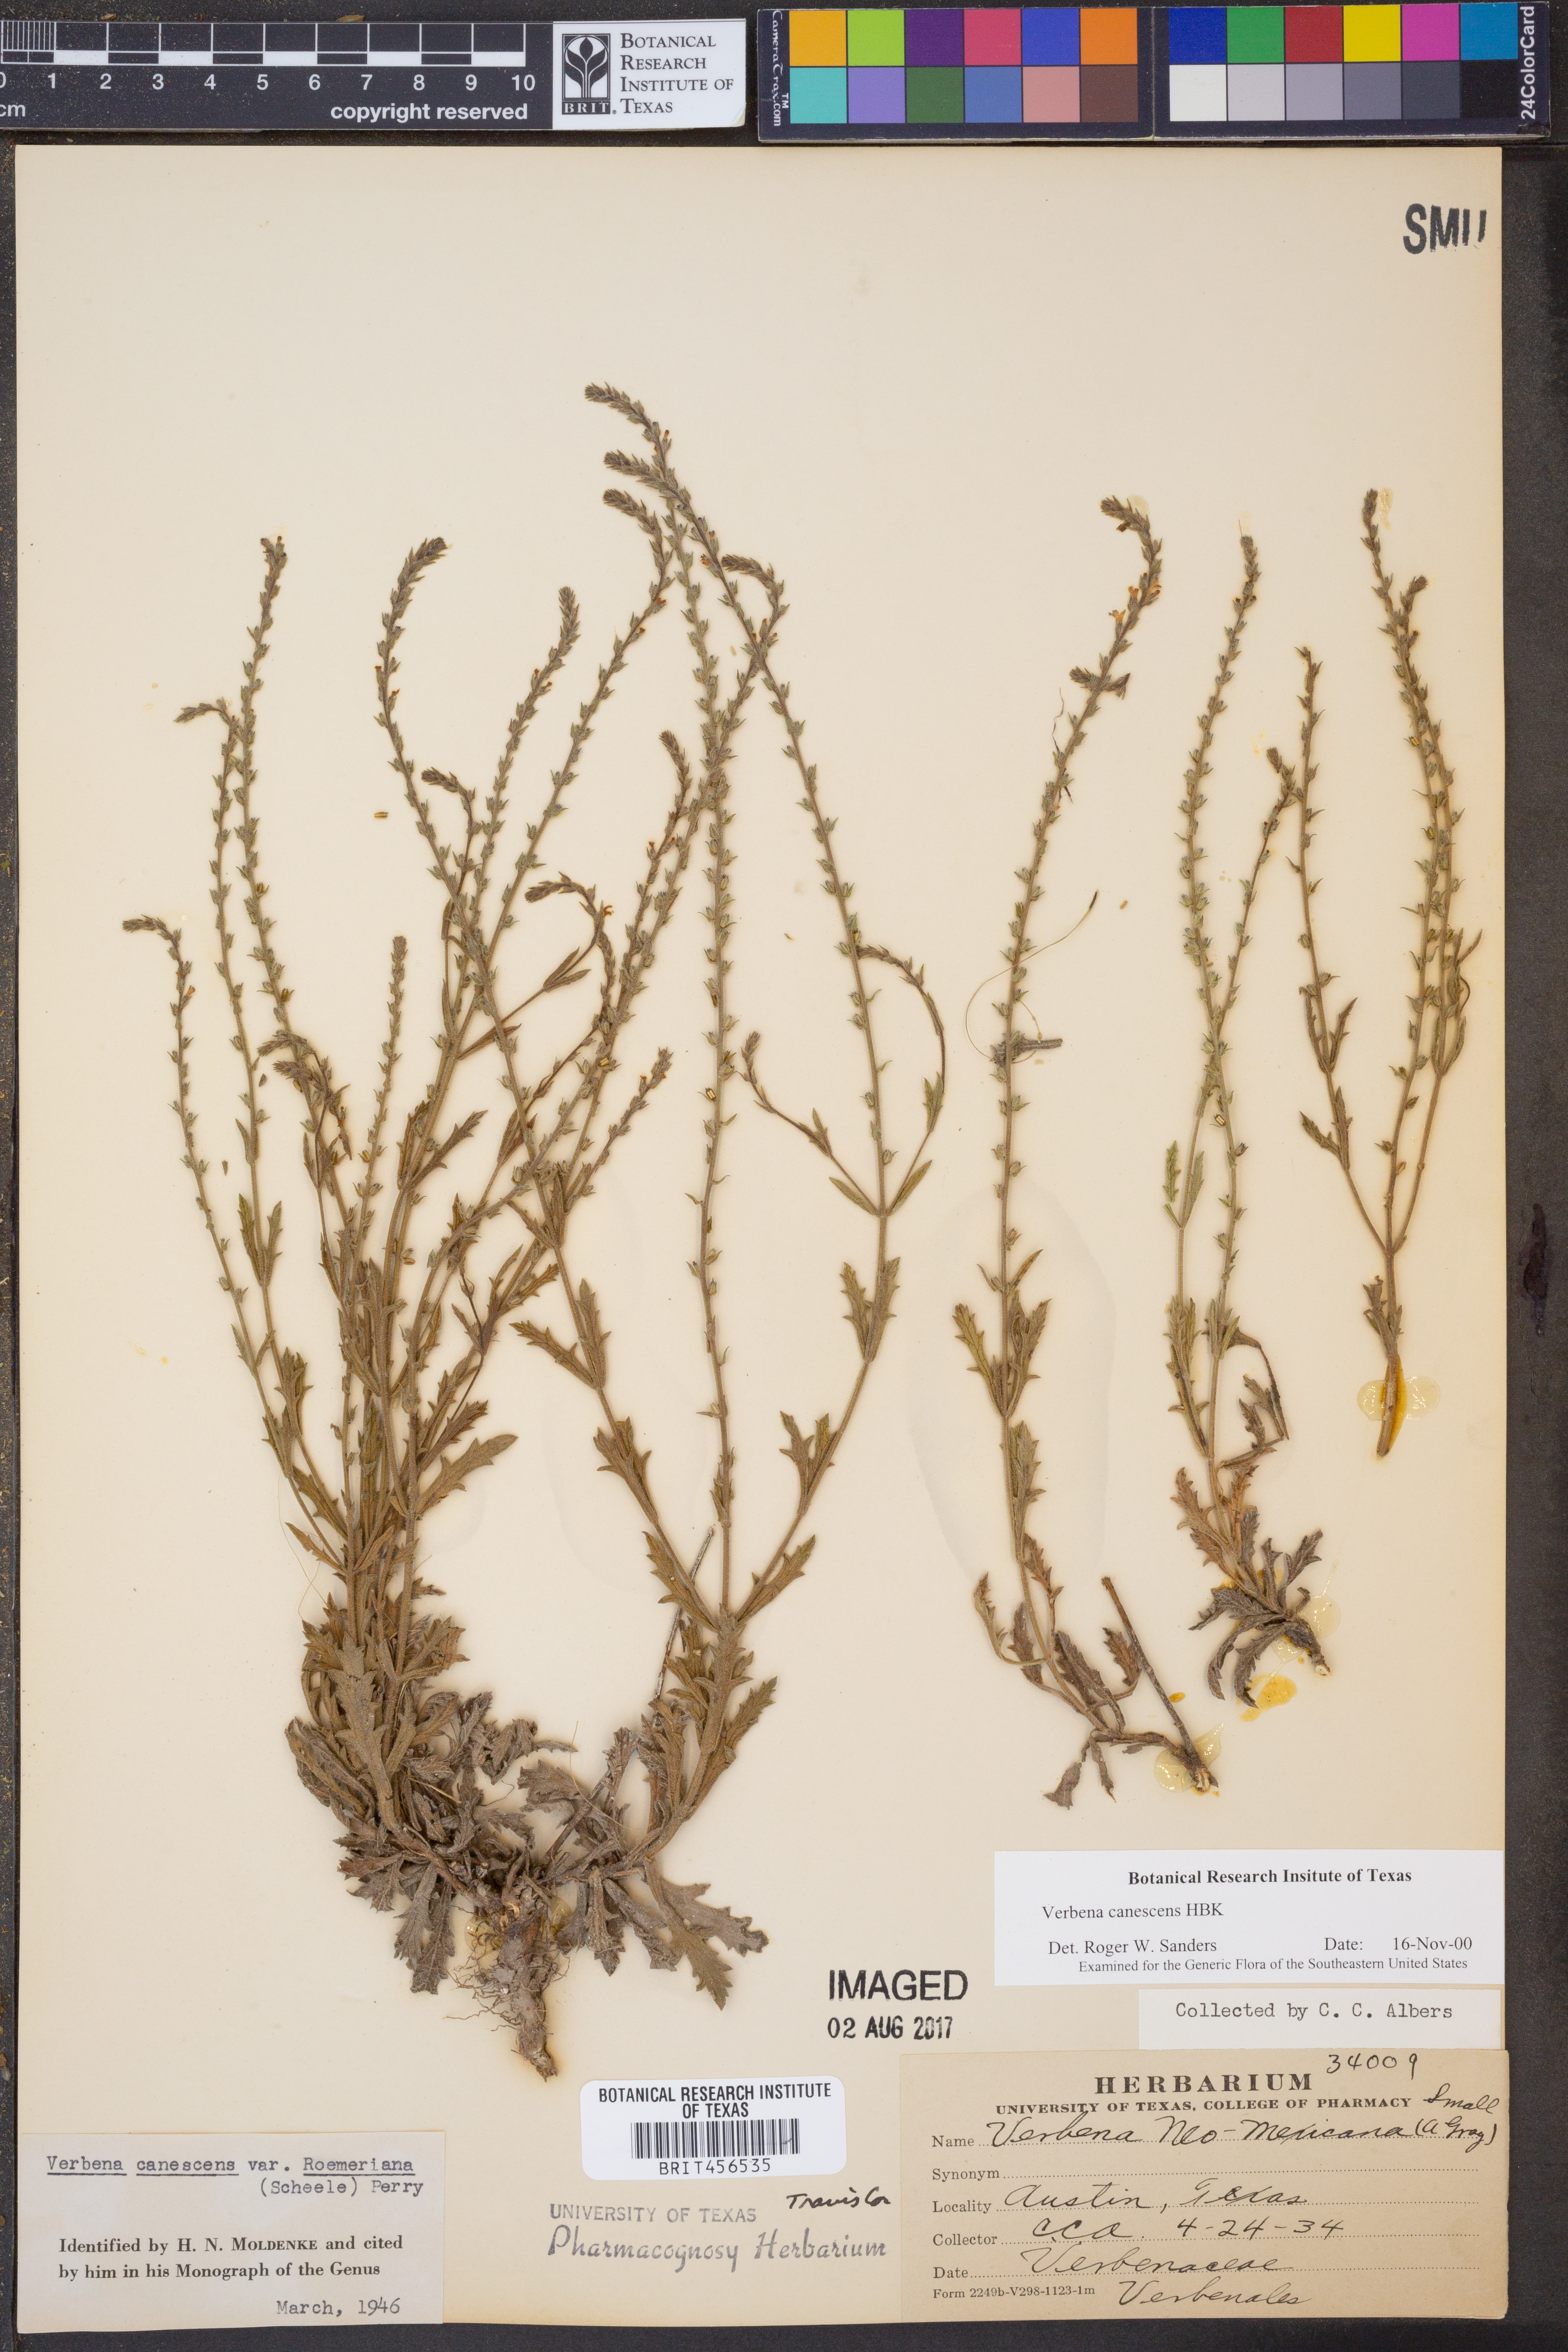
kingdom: Plantae
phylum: Tracheophyta
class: Magnoliopsida
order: Lamiales
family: Verbenaceae
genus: Verbena
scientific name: Verbena canescens
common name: Gray vervain
